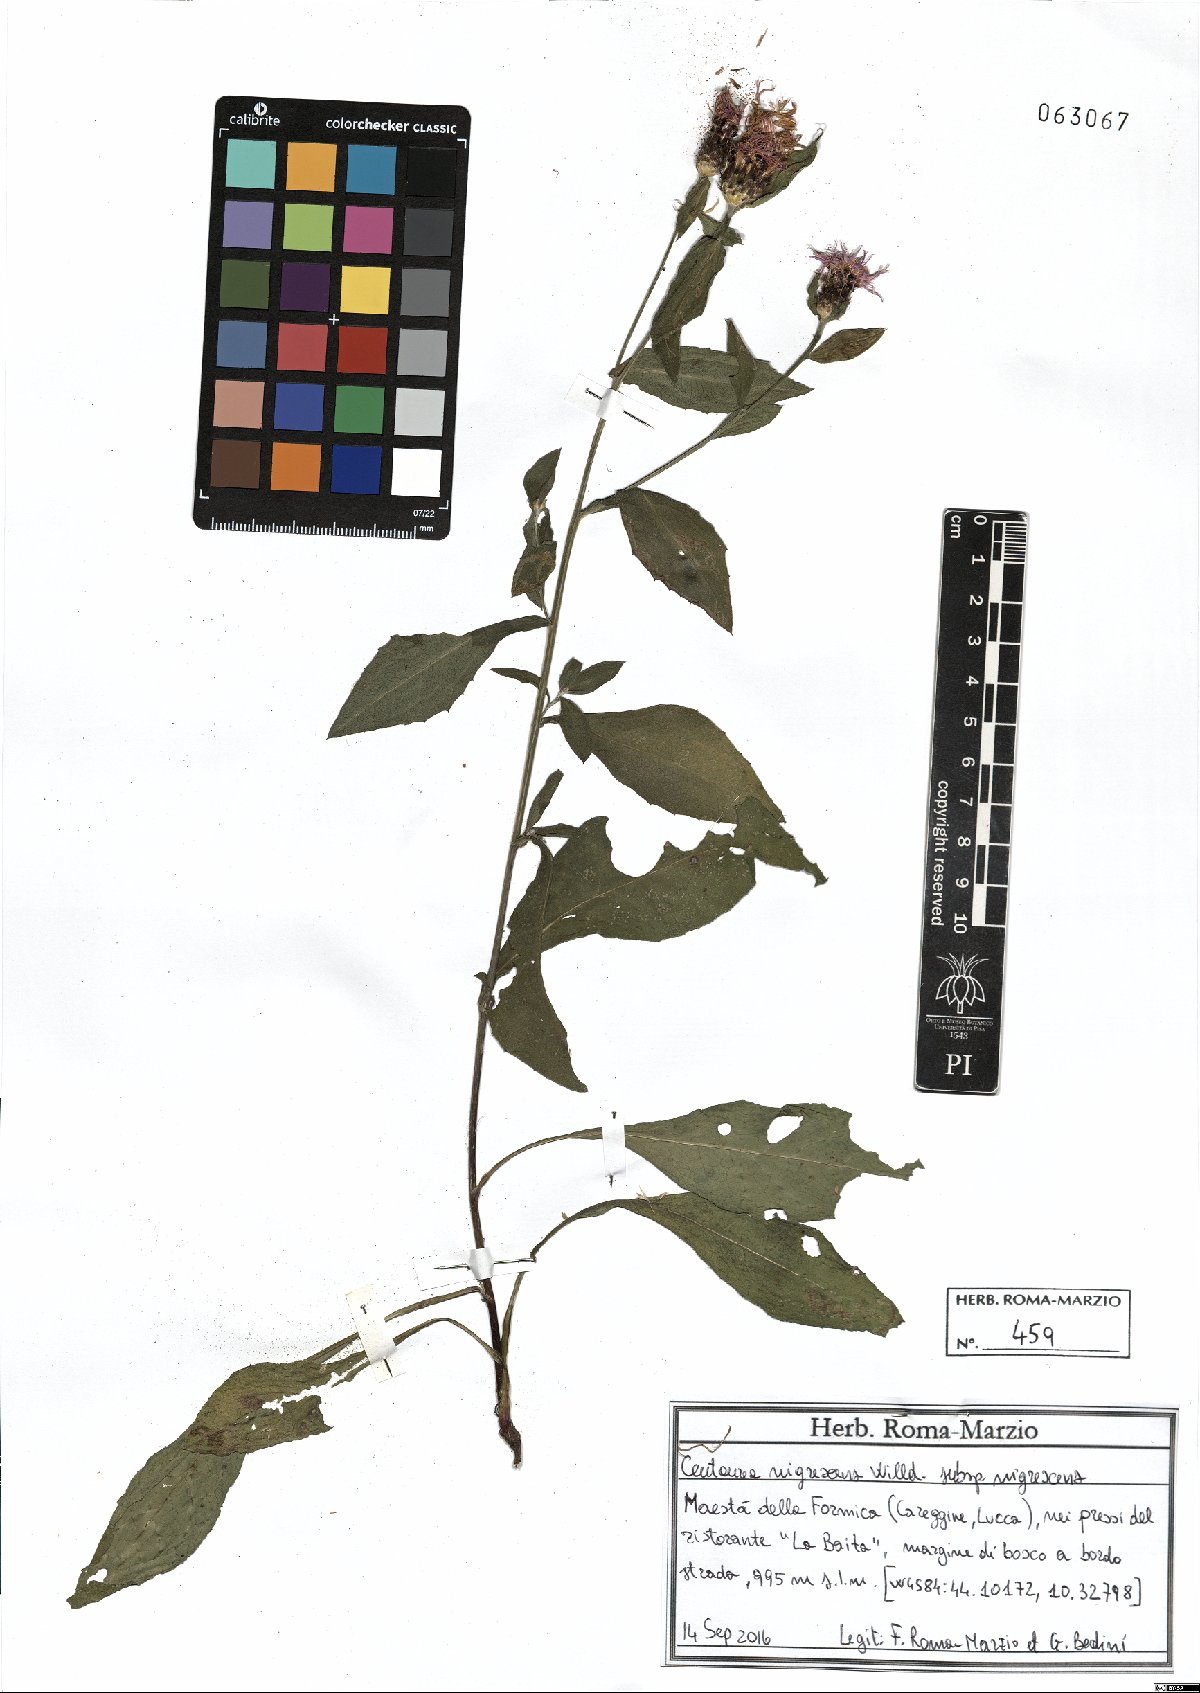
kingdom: Plantae
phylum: Tracheophyta
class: Magnoliopsida
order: Asterales
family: Asteraceae
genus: Centaurea
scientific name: Centaurea nigrescens
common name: Tyrol knapweed
